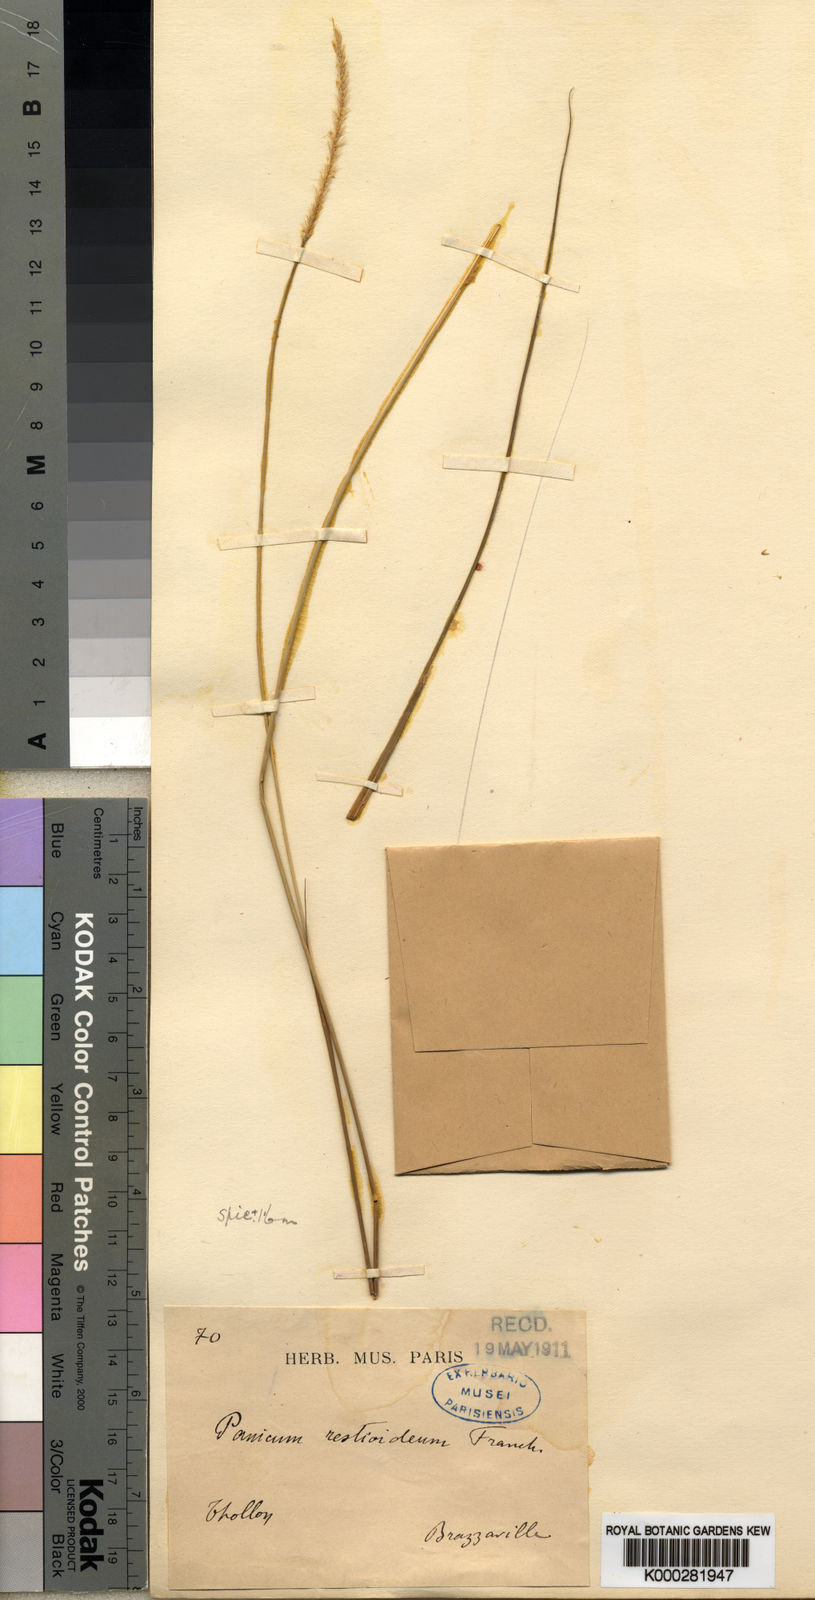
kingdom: Plantae
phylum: Tracheophyta
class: Liliopsida
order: Poales
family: Poaceae
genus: Setaria
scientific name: Setaria restioidea
